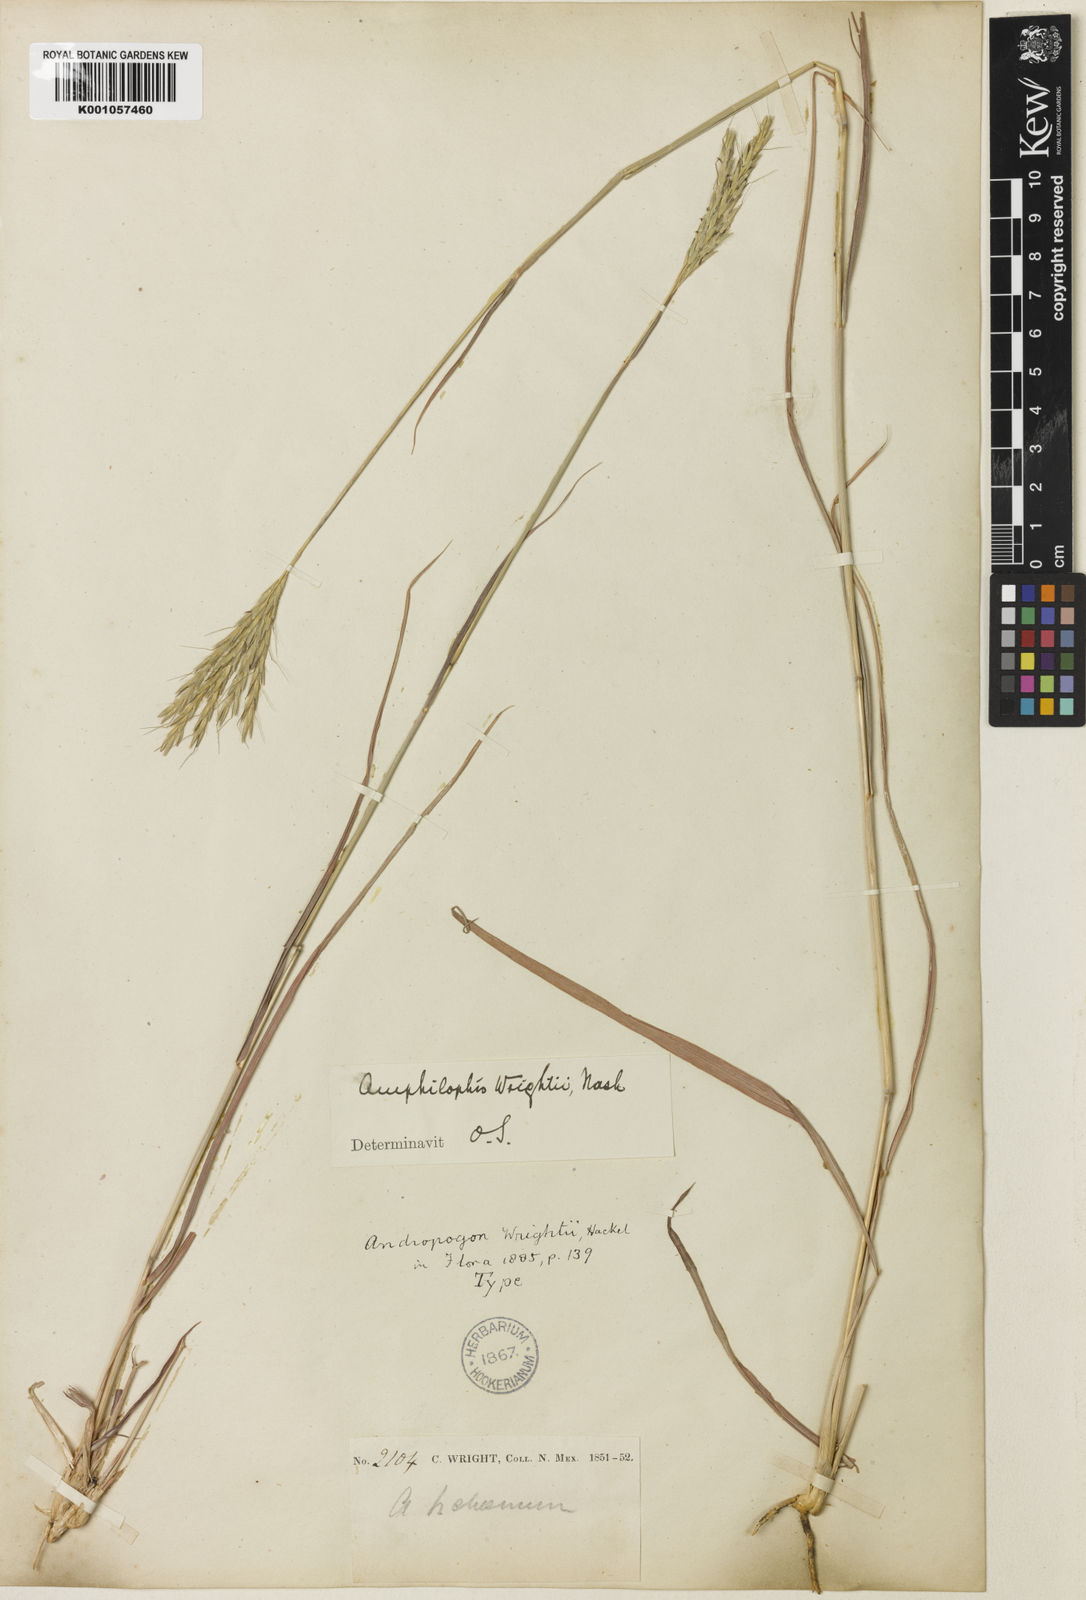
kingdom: Plantae
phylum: Tracheophyta
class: Liliopsida
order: Poales
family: Poaceae
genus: Bothriochloa
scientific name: Bothriochloa wrightii
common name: Wright's bluestem
